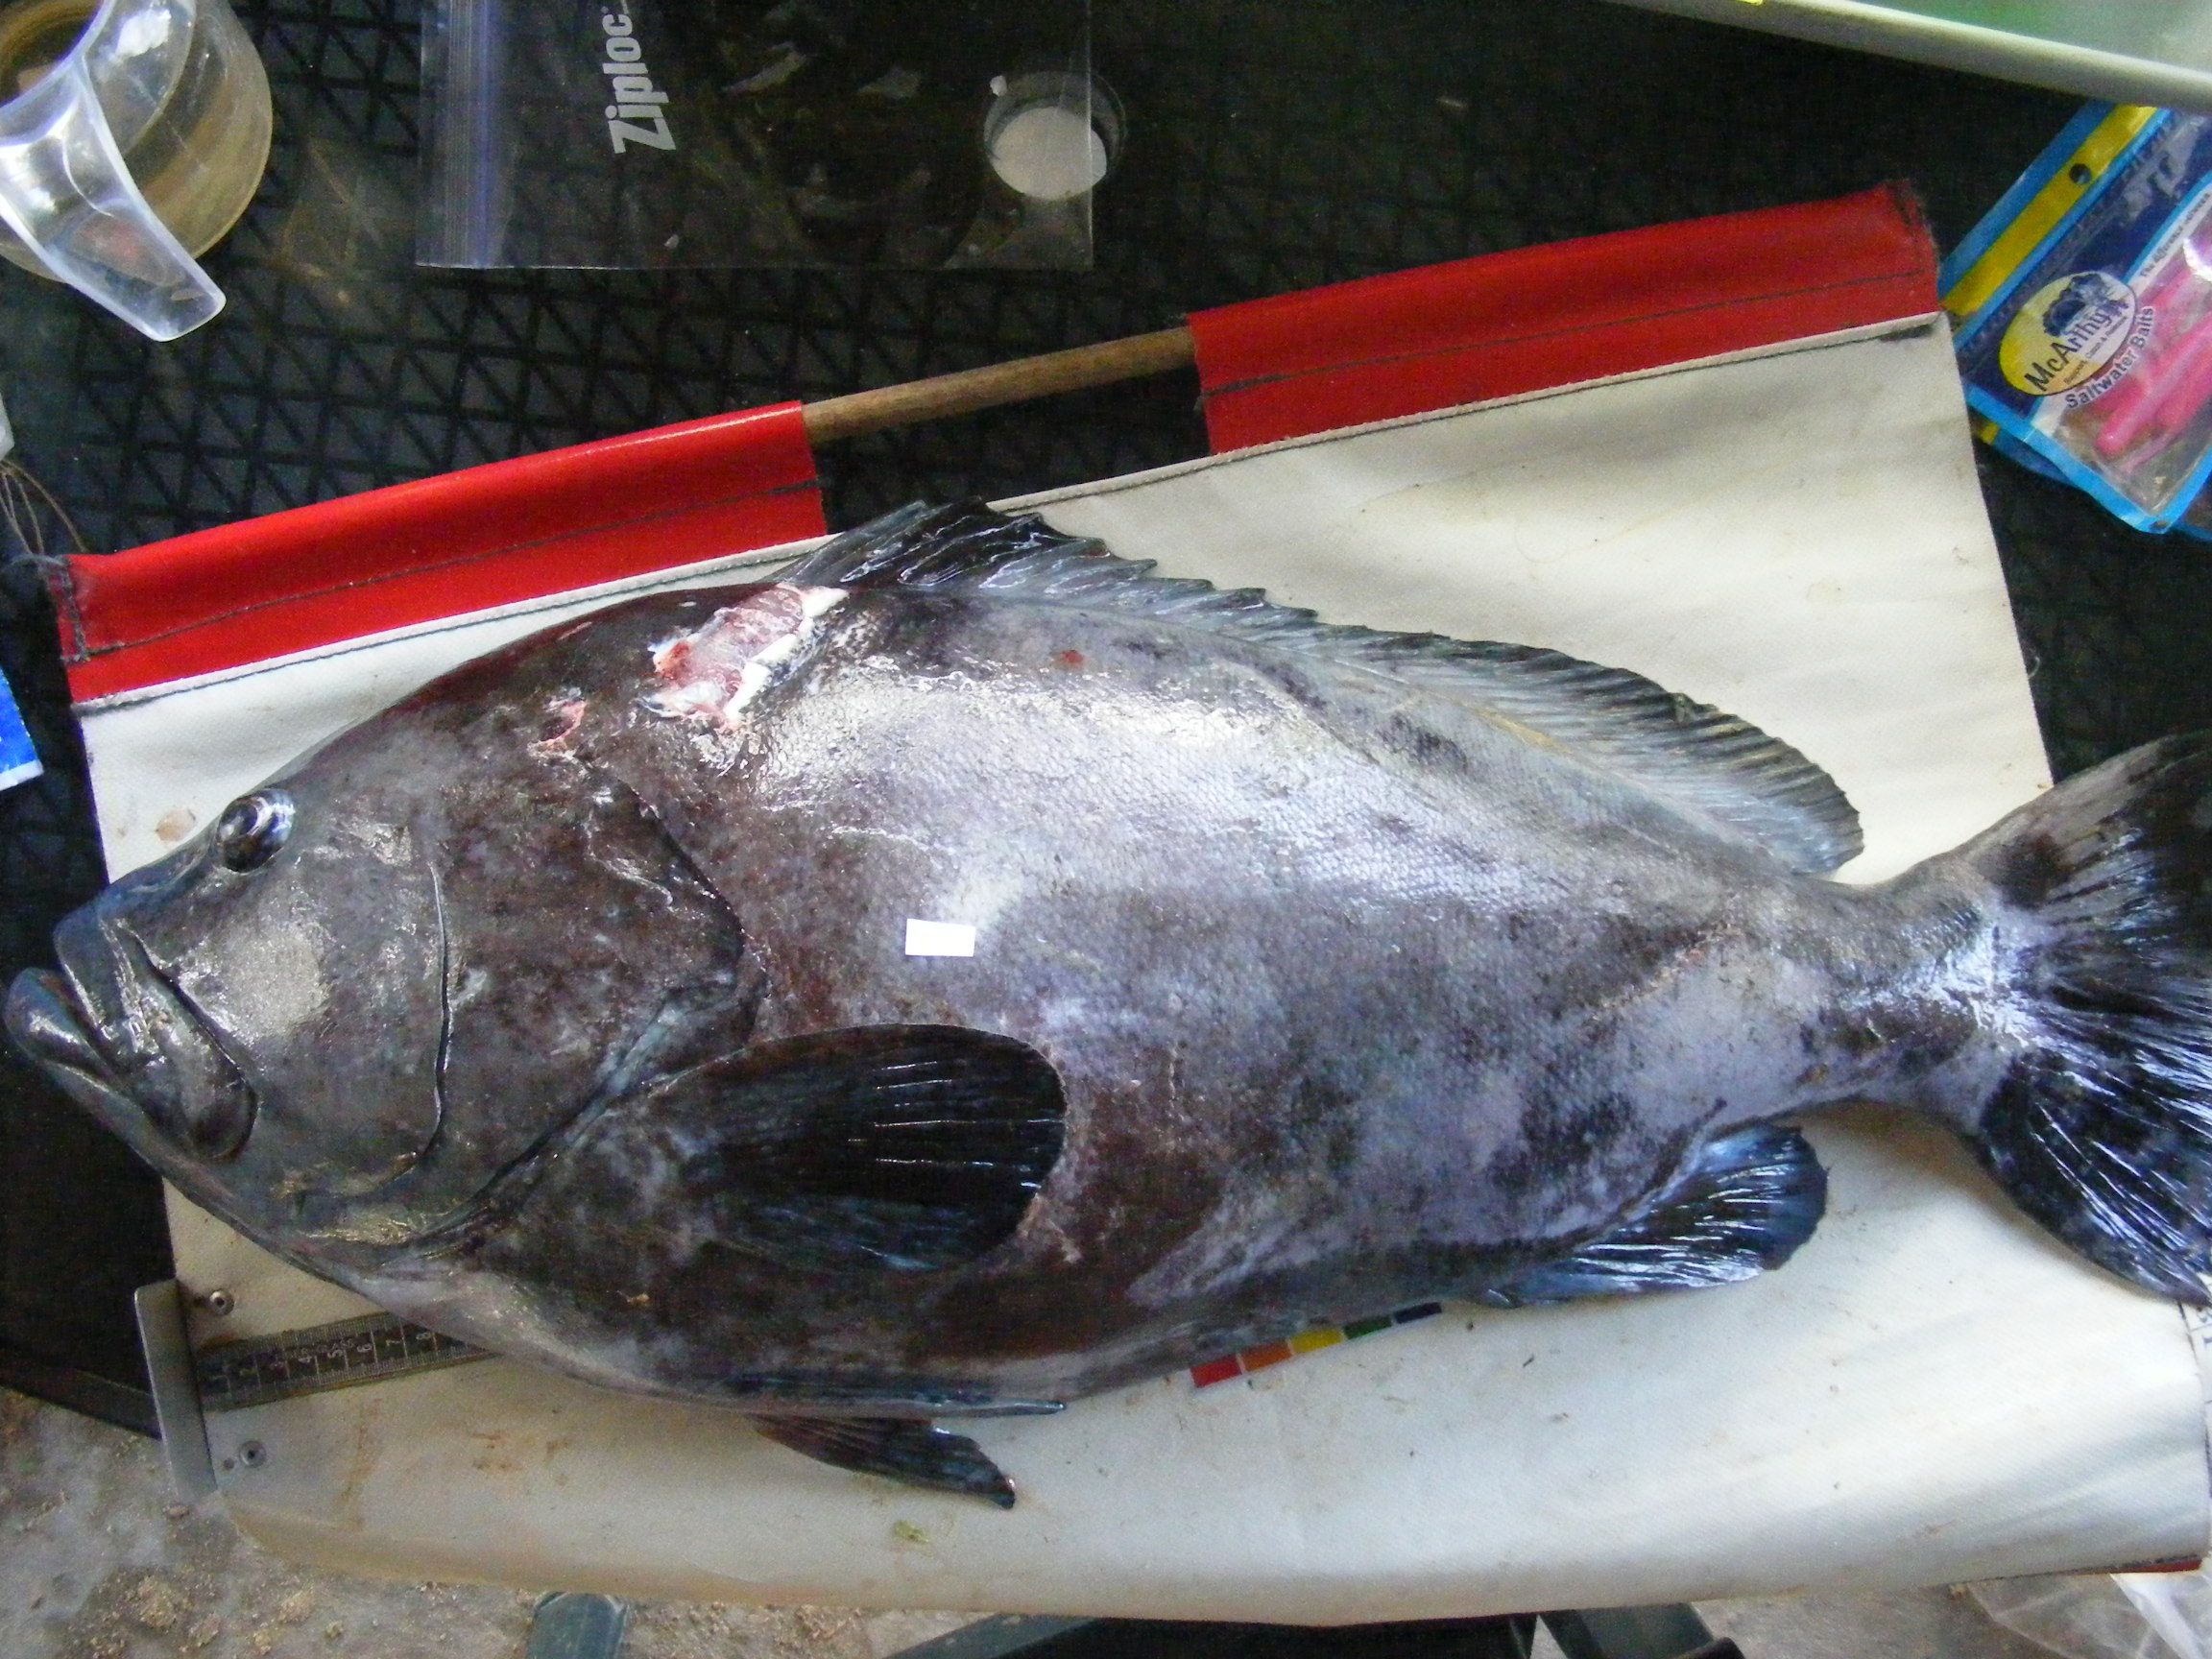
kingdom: Animalia
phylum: Chordata
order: Perciformes
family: Serranidae
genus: Epinephelus
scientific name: Epinephelus multinotatus
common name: Rankin's cod
